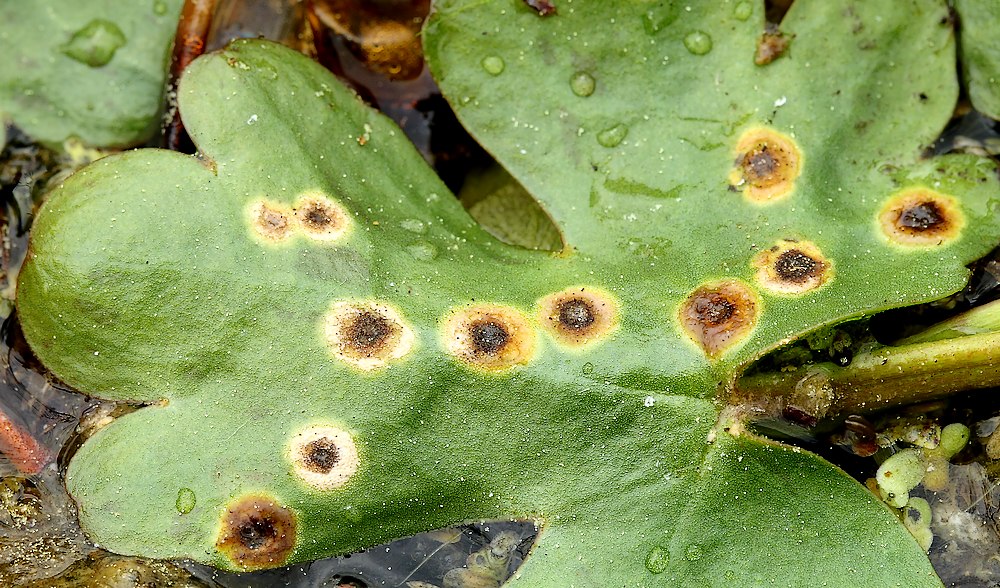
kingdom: Fungi
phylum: Basidiomycota
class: Exobasidiomycetes
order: Entylomatales
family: Entylomataceae
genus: Entyloma
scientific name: Entyloma ranunculi-scelerati
